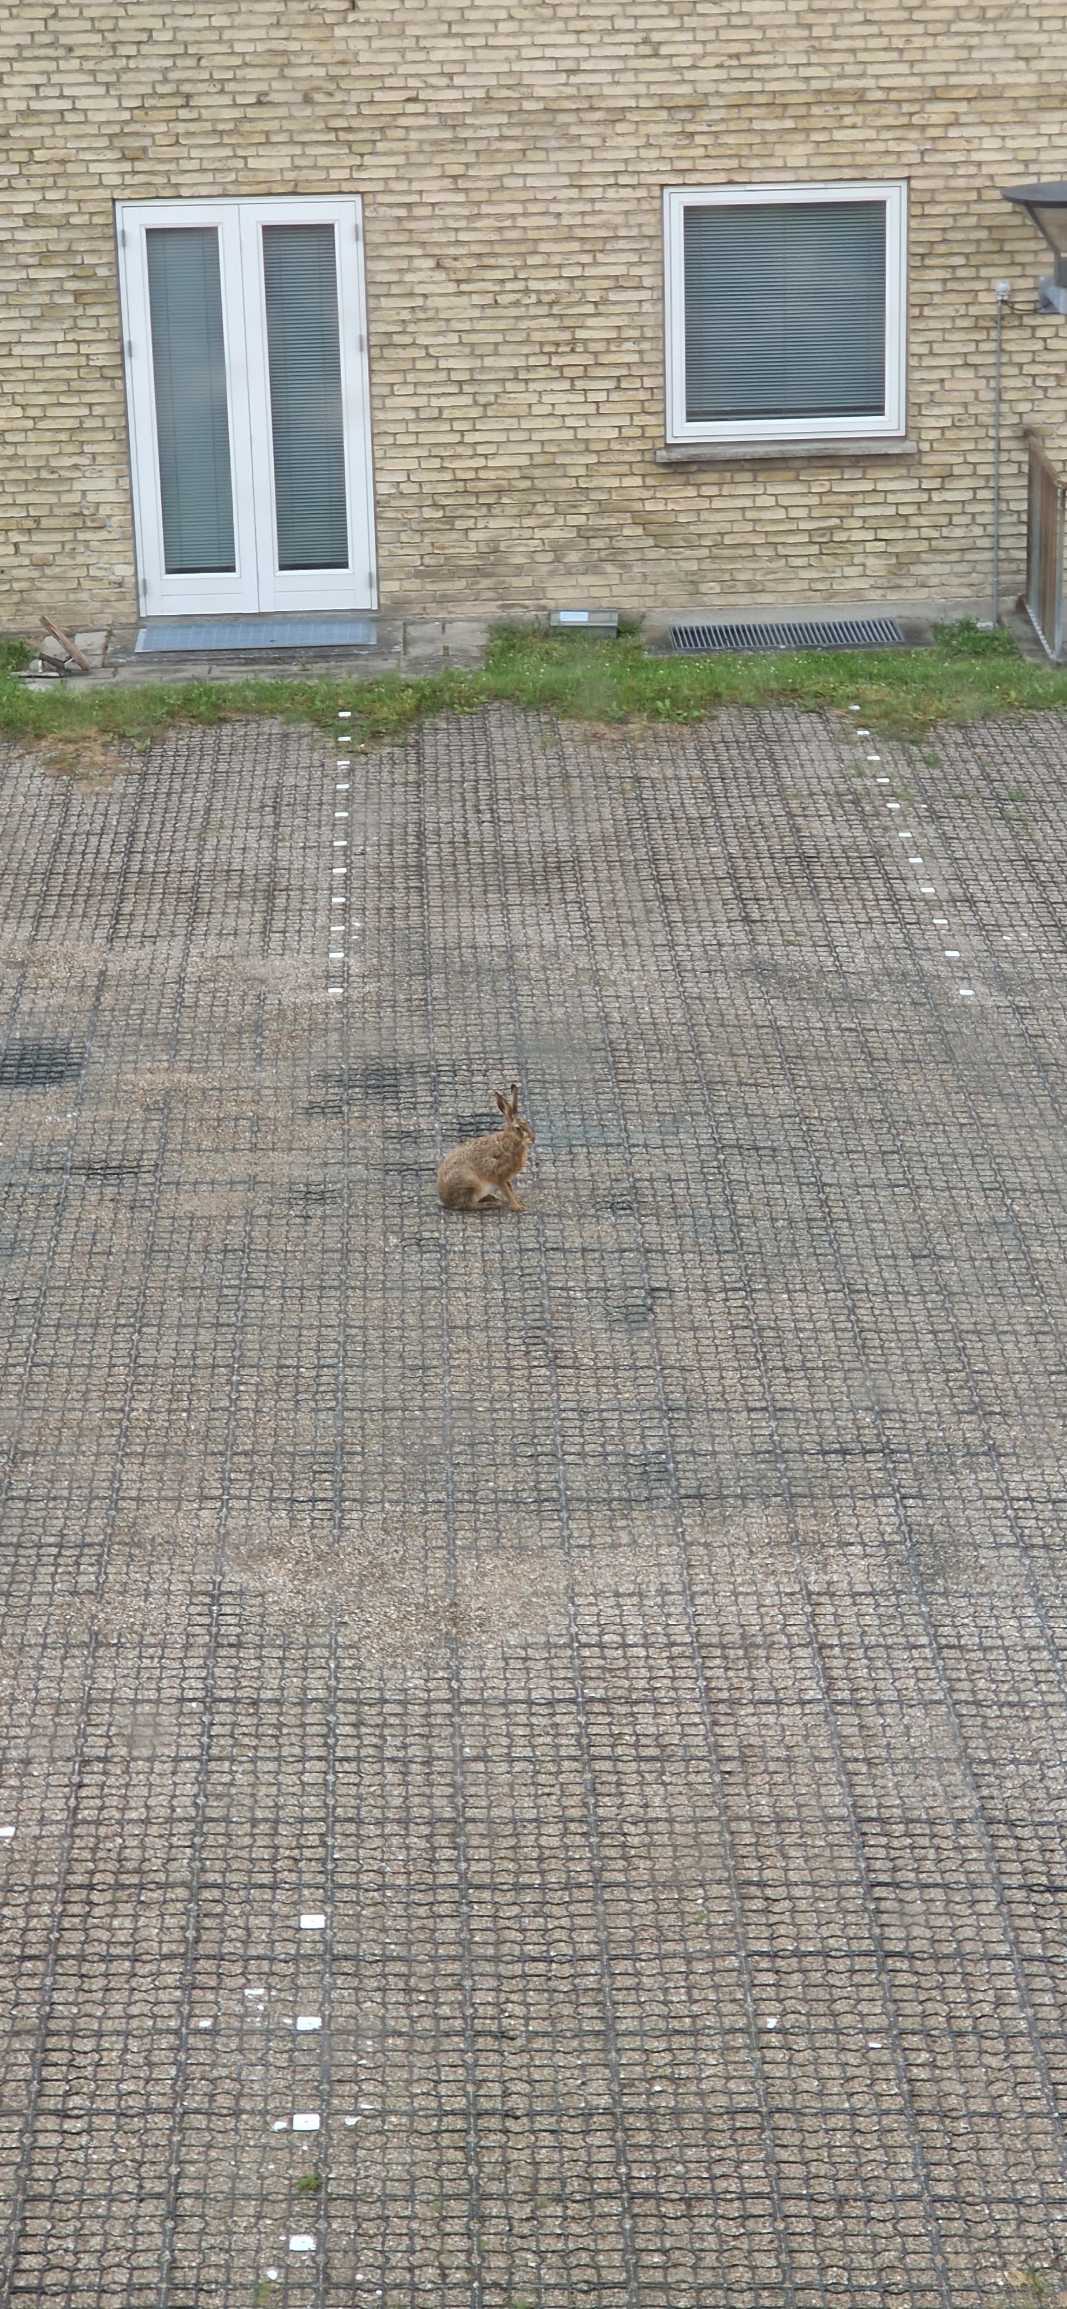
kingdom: Animalia
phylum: Chordata
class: Mammalia
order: Lagomorpha
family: Leporidae
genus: Lepus
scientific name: Lepus europaeus
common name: Hare
